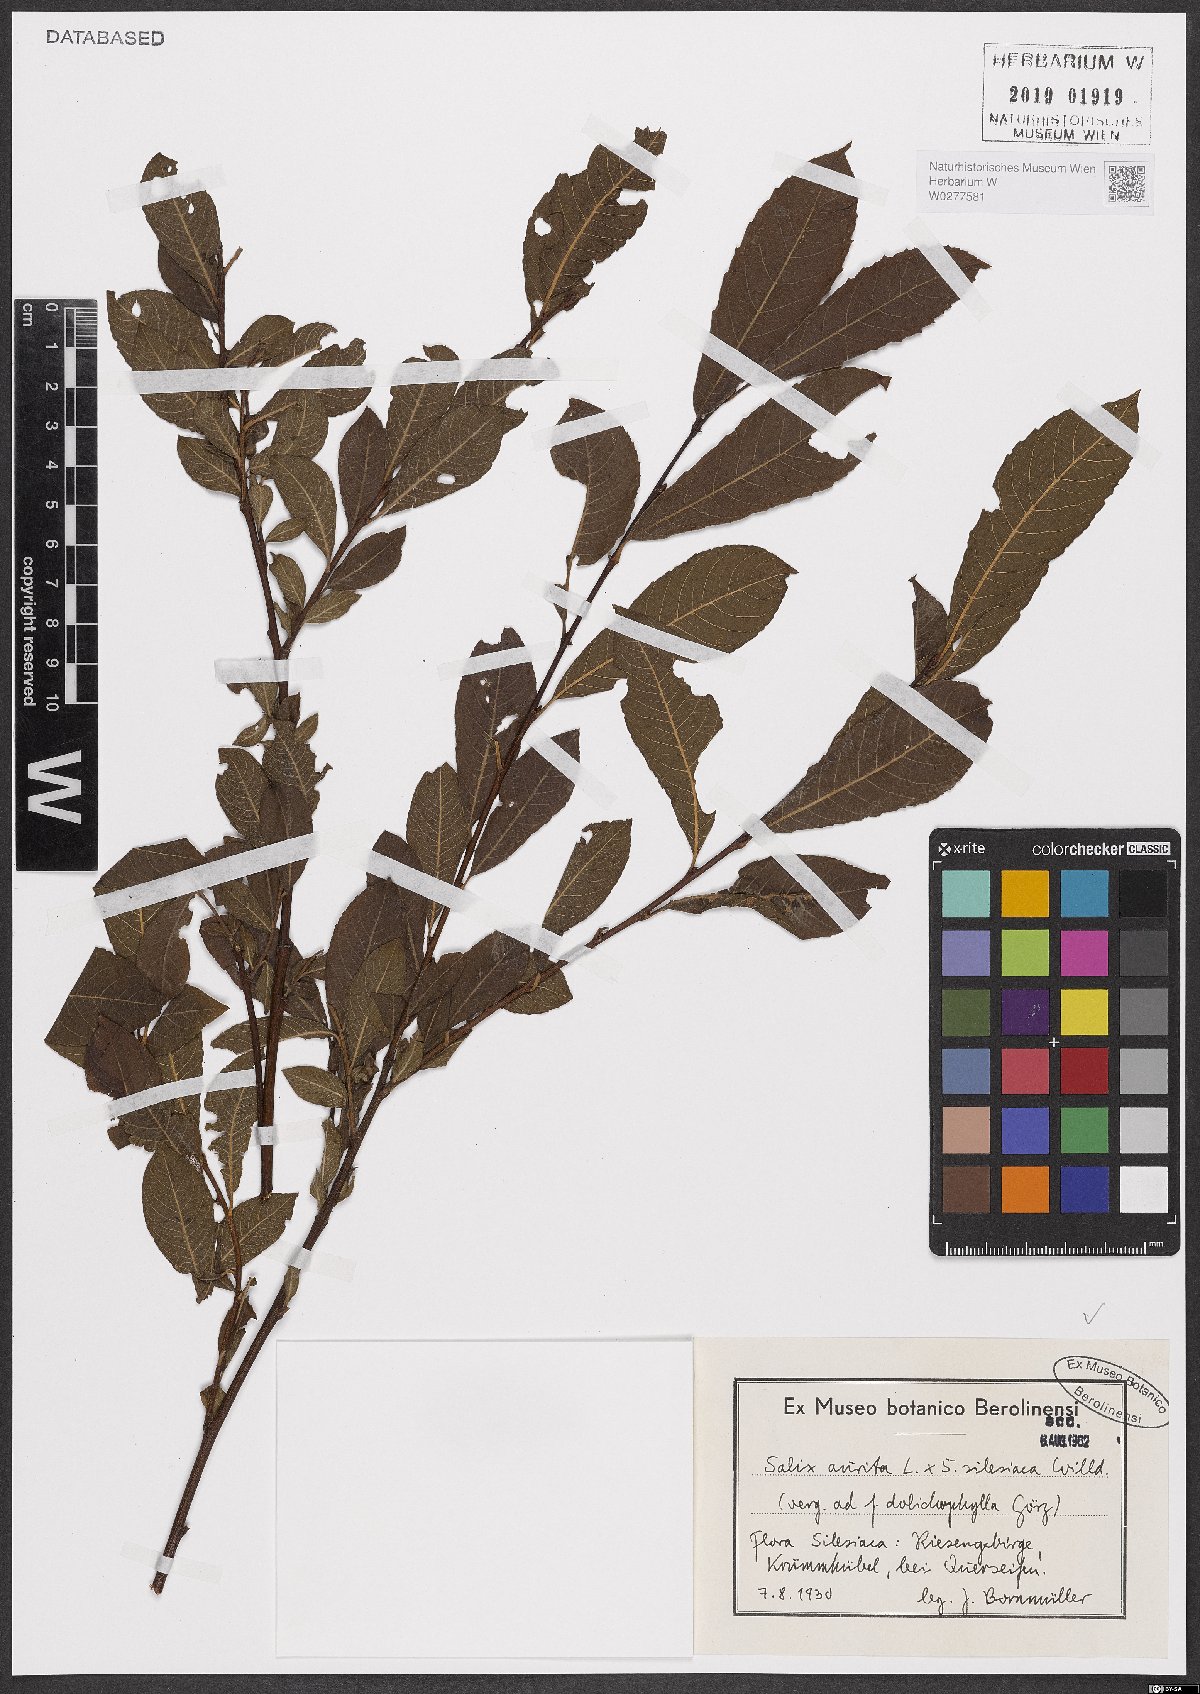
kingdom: Plantae
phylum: Tracheophyta
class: Magnoliopsida
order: Malpighiales
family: Salicaceae
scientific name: Salicaceae
